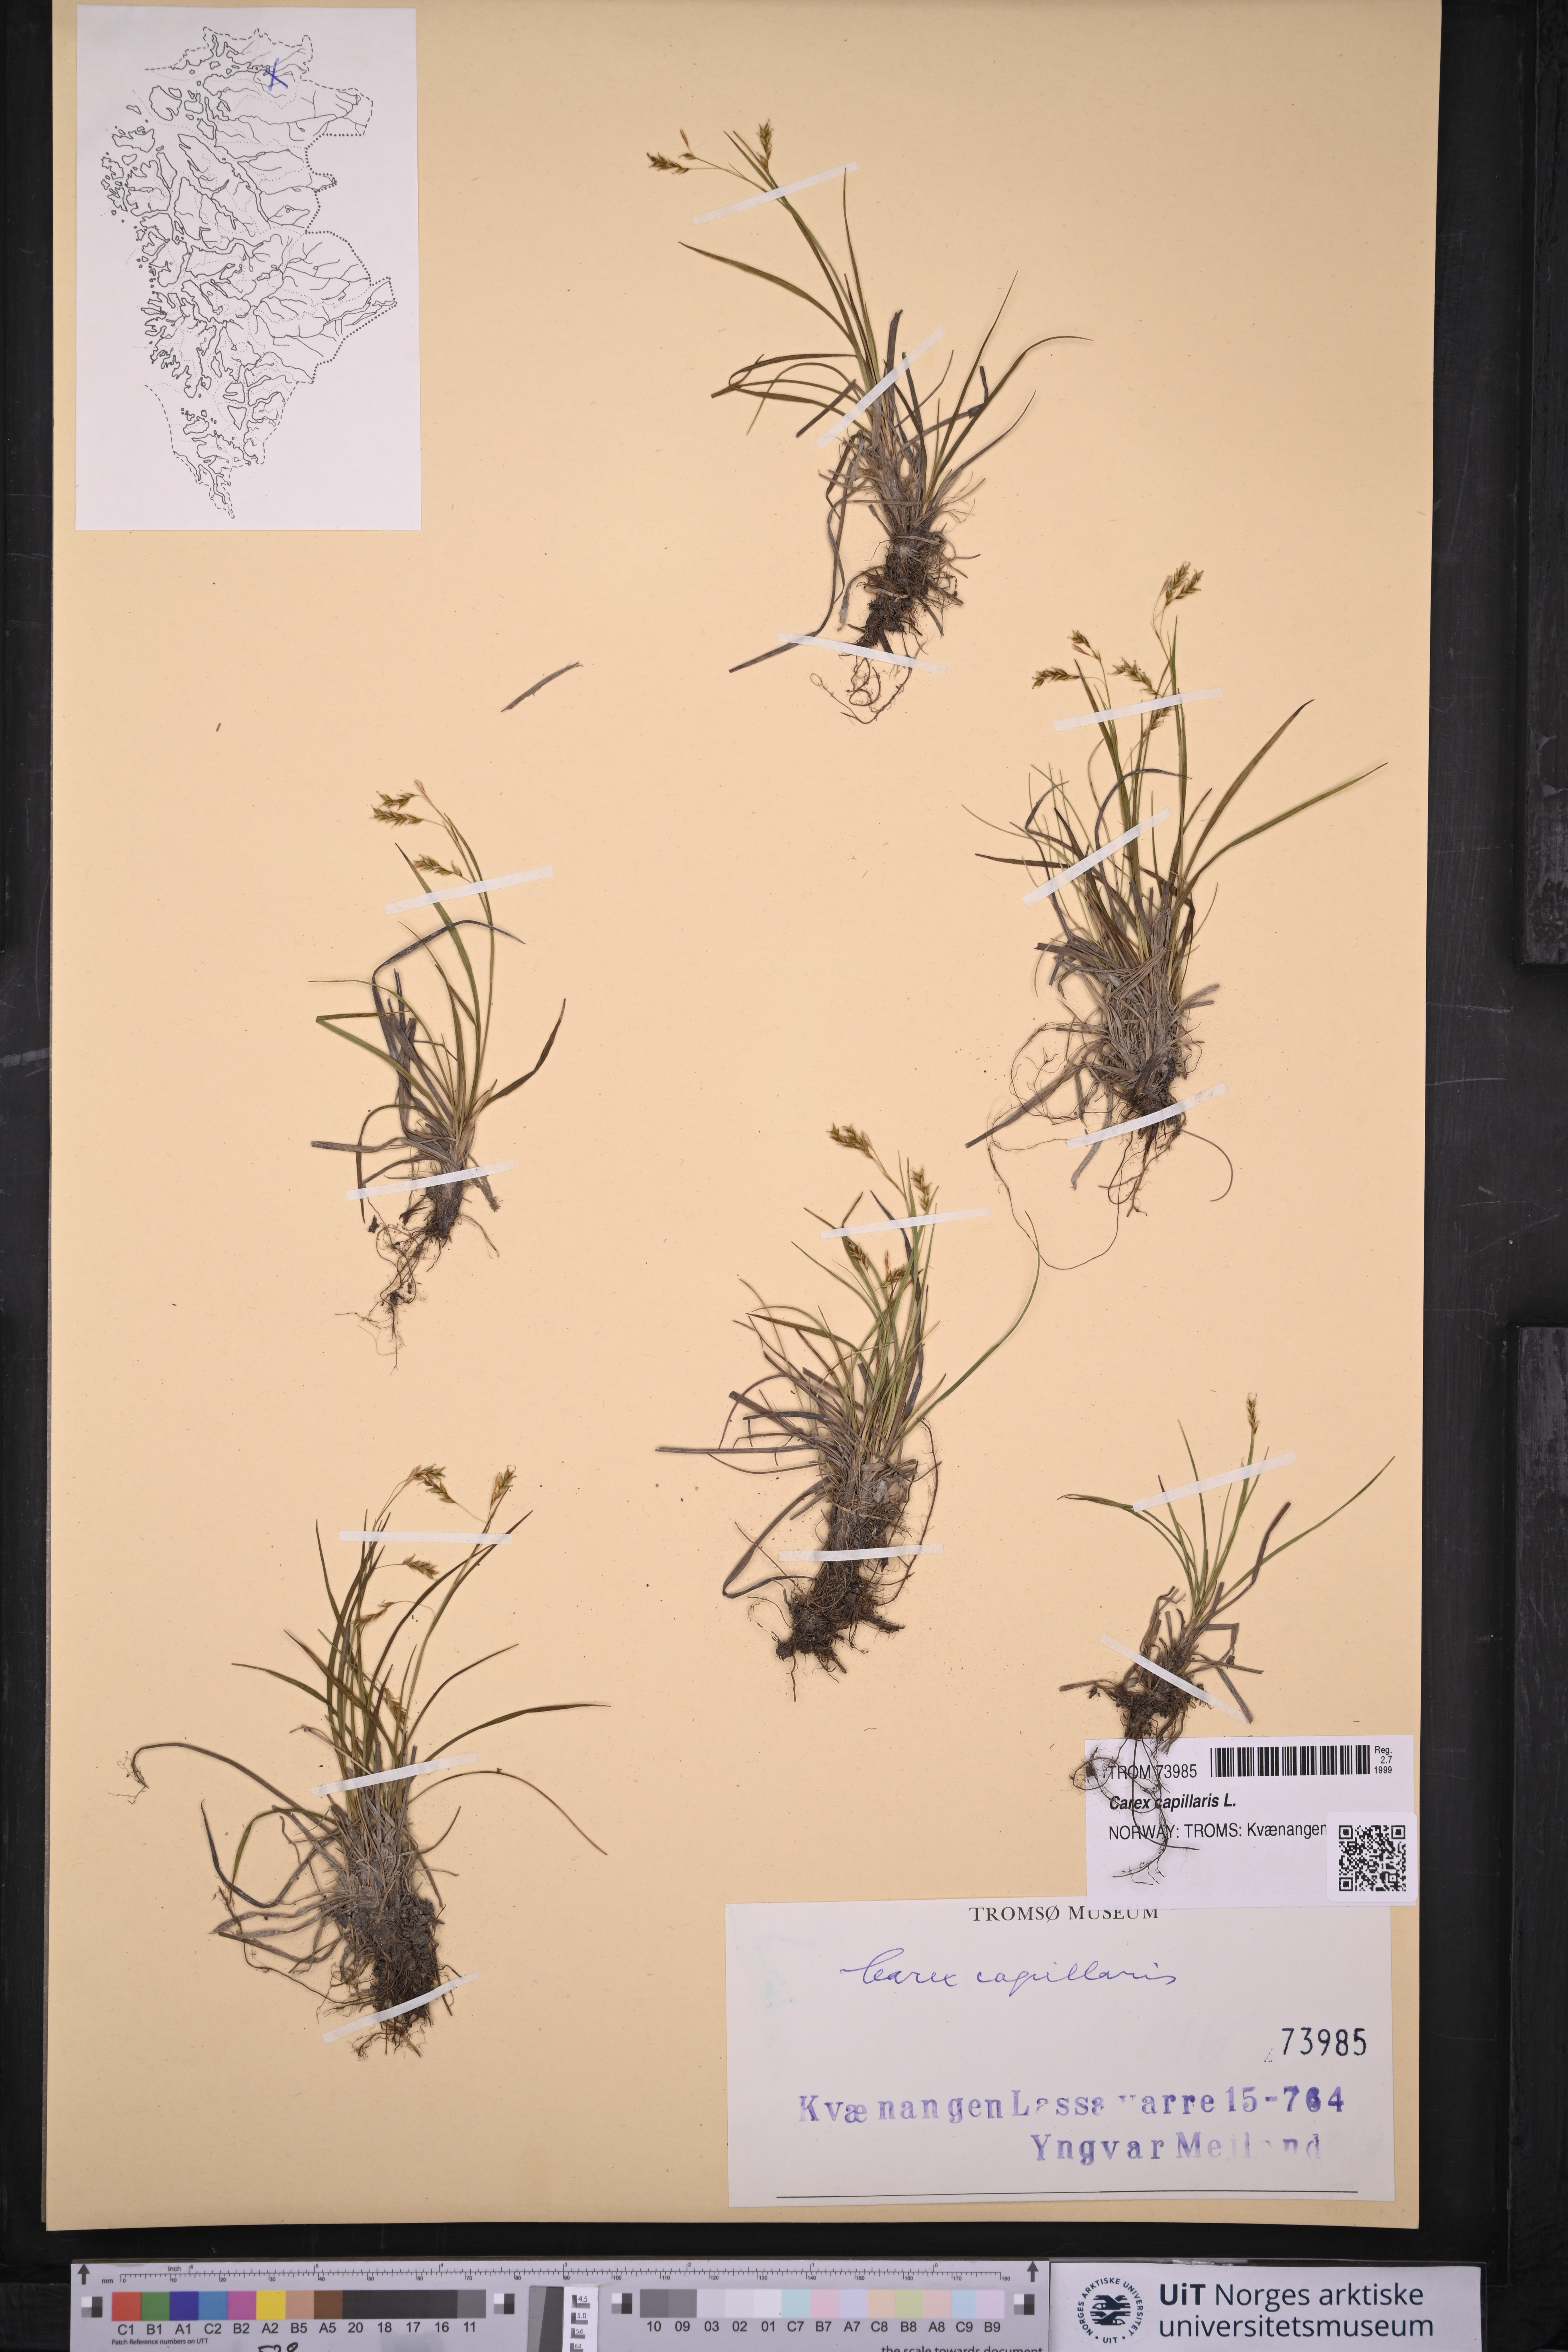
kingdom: Plantae
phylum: Tracheophyta
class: Liliopsida
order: Poales
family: Cyperaceae
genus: Carex
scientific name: Carex capillaris
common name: Hair sedge
